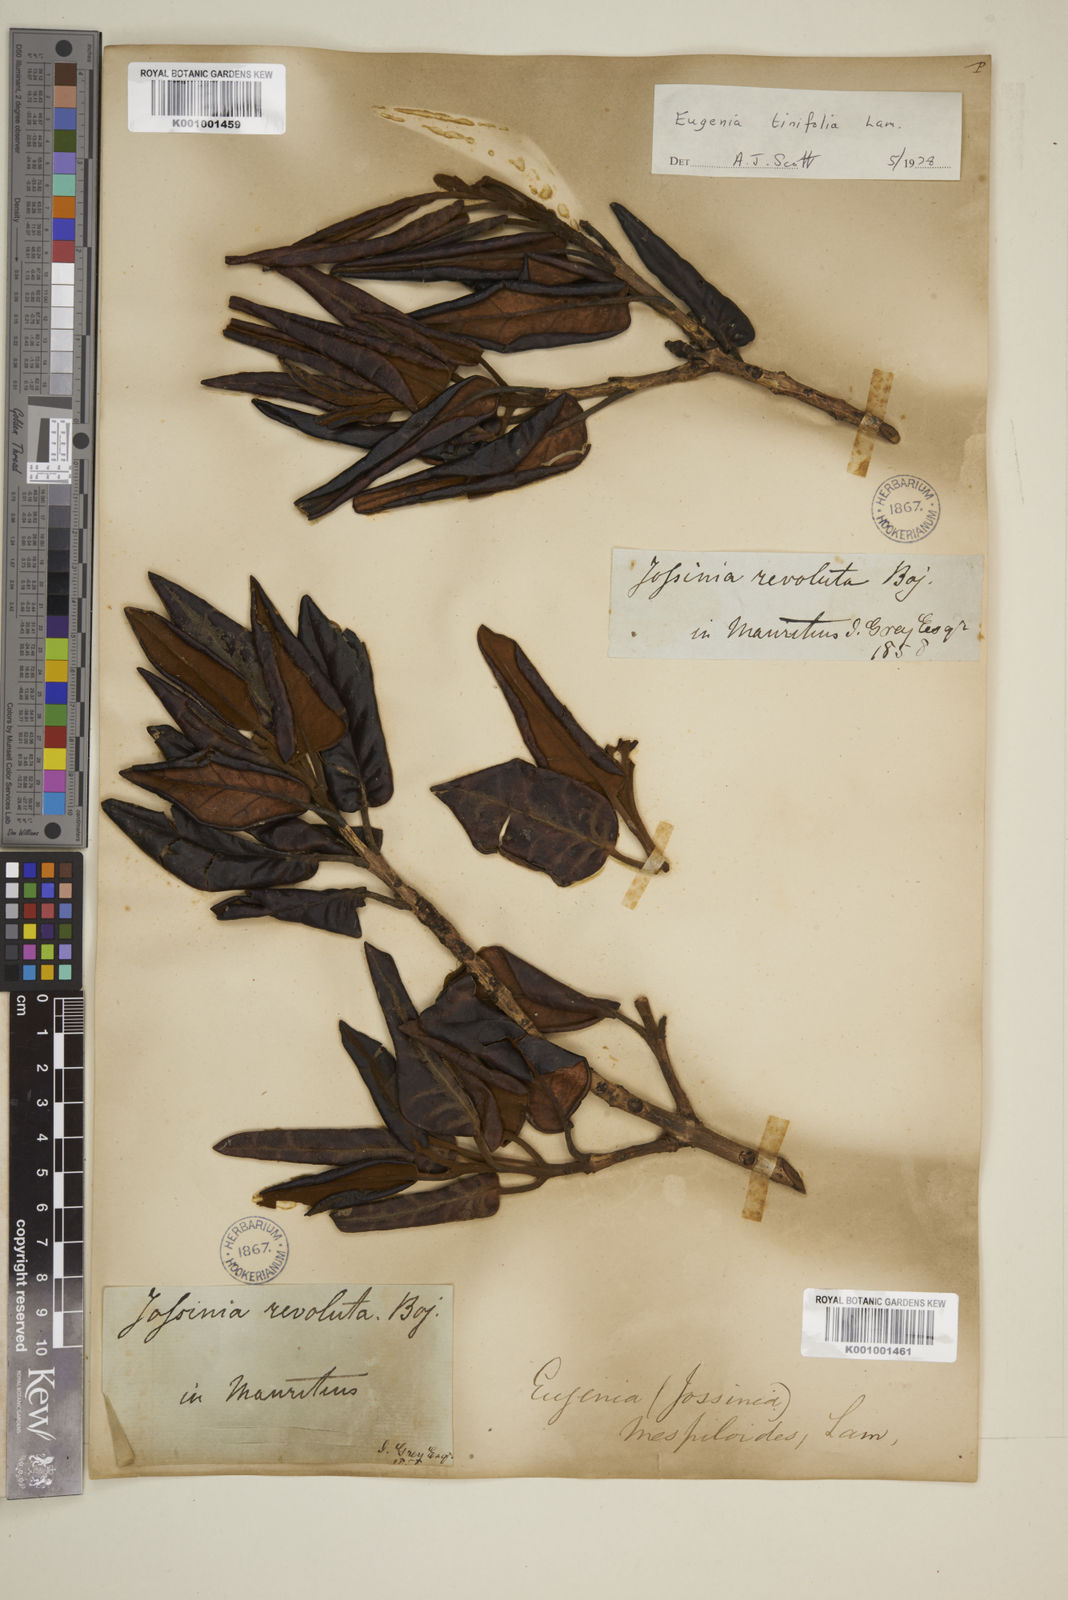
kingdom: Plantae
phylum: Tracheophyta
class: Magnoliopsida
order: Myrtales
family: Myrtaceae
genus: Eugenia
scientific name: Eugenia tinifolia
